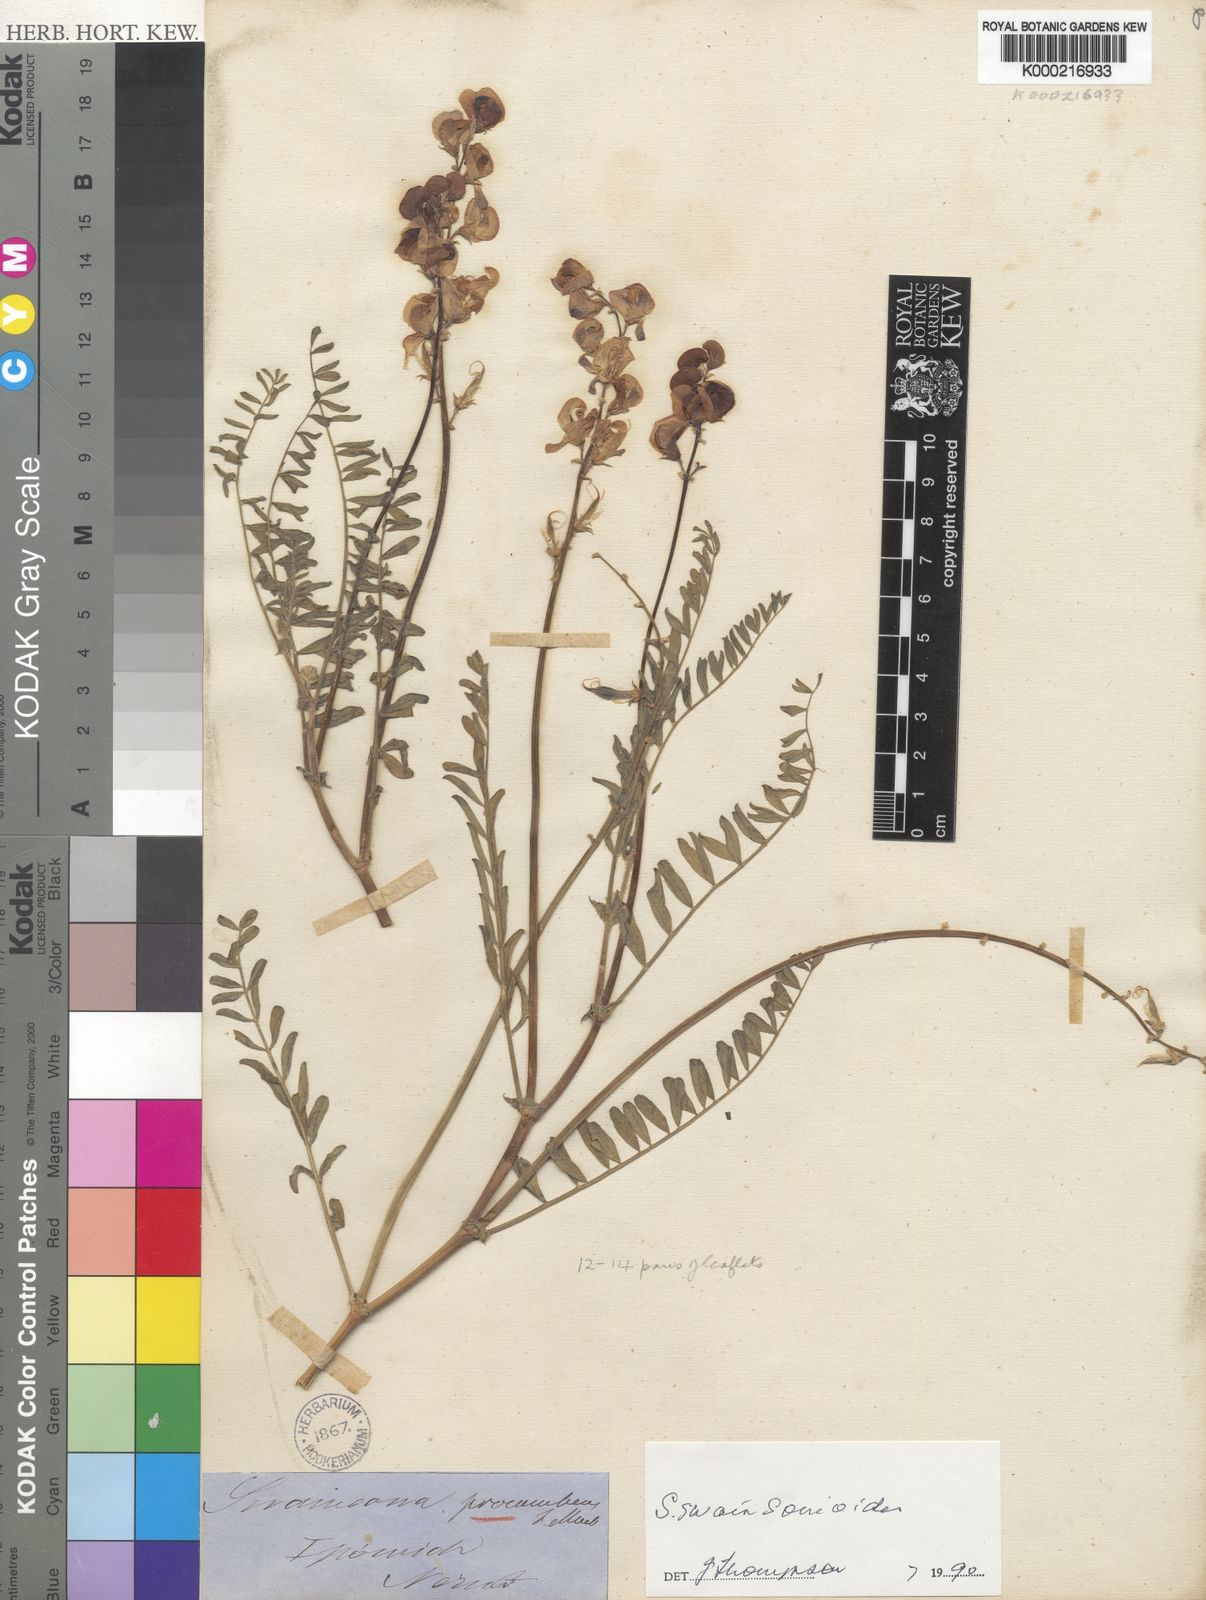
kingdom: Plantae
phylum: Tracheophyta
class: Magnoliopsida
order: Fabales
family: Fabaceae
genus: Swainsona
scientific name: Swainsona swainsonioides
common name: Downy swainsona
